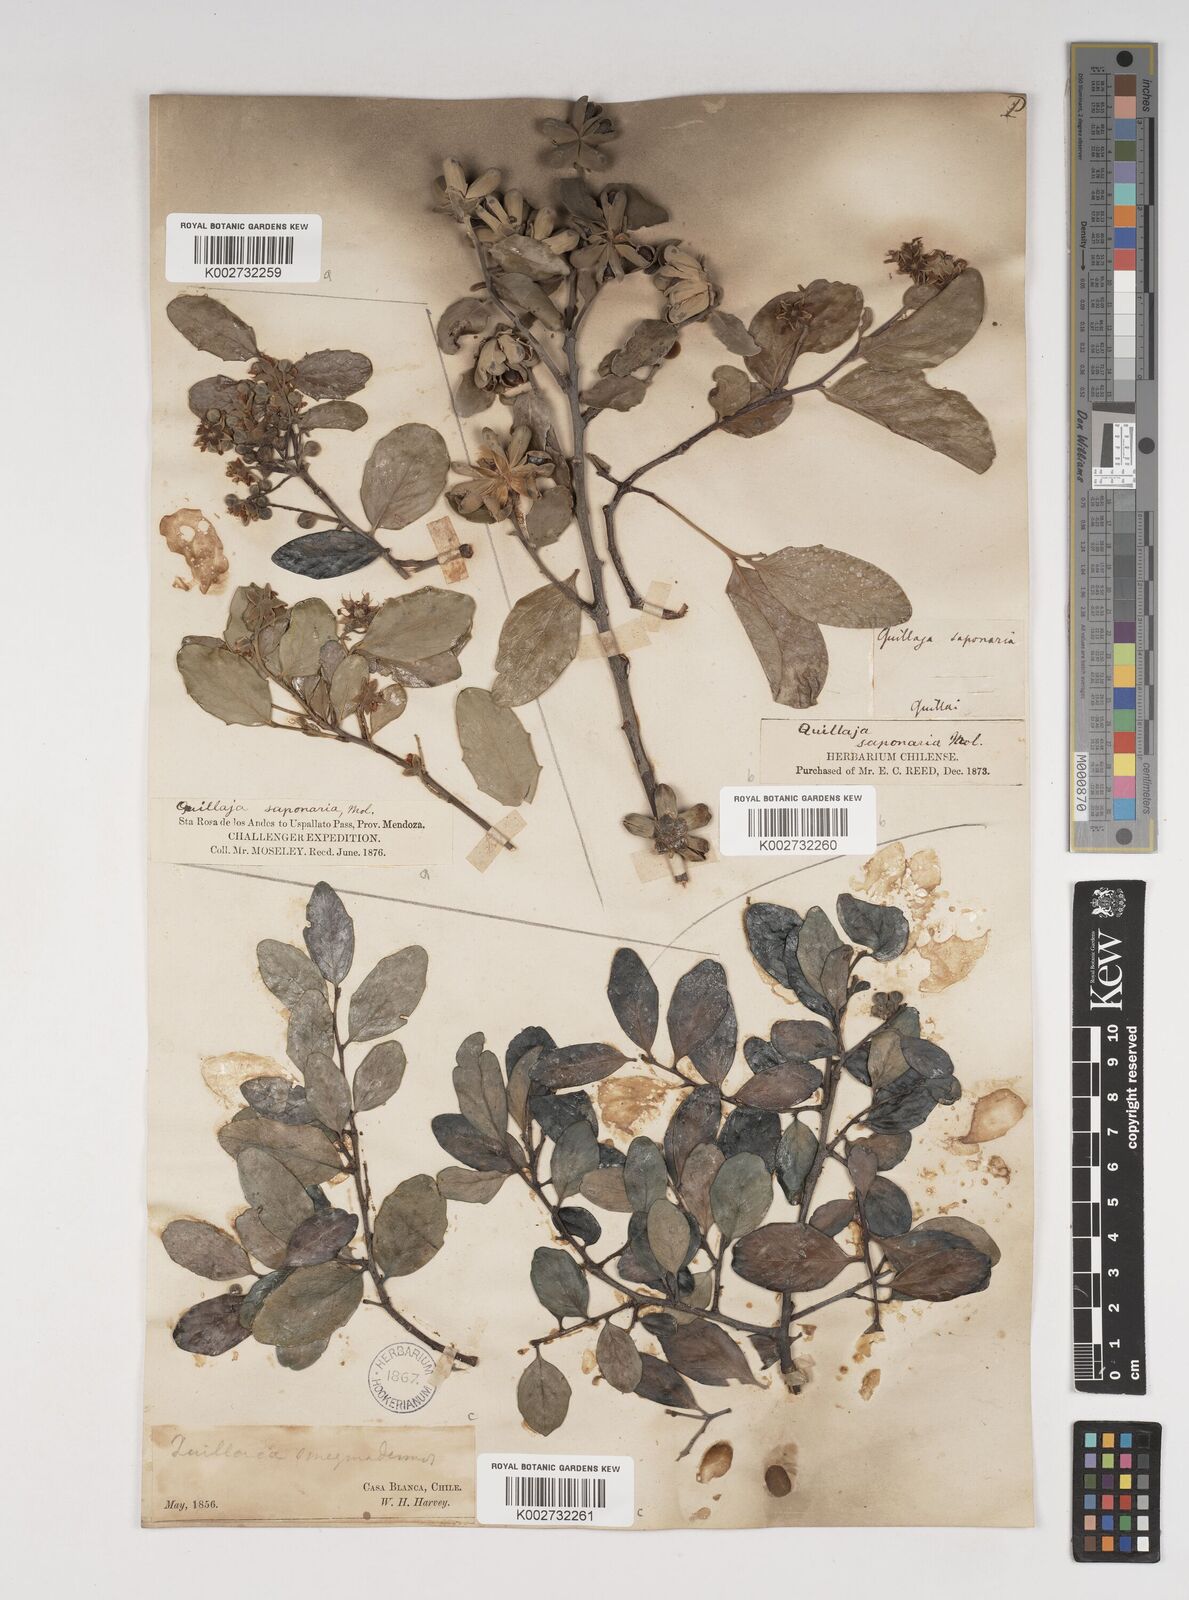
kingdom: Plantae
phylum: Tracheophyta
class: Magnoliopsida
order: Fabales
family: Quillajaceae
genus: Quillaja
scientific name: Quillaja saponaria
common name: Murillo's-bark
